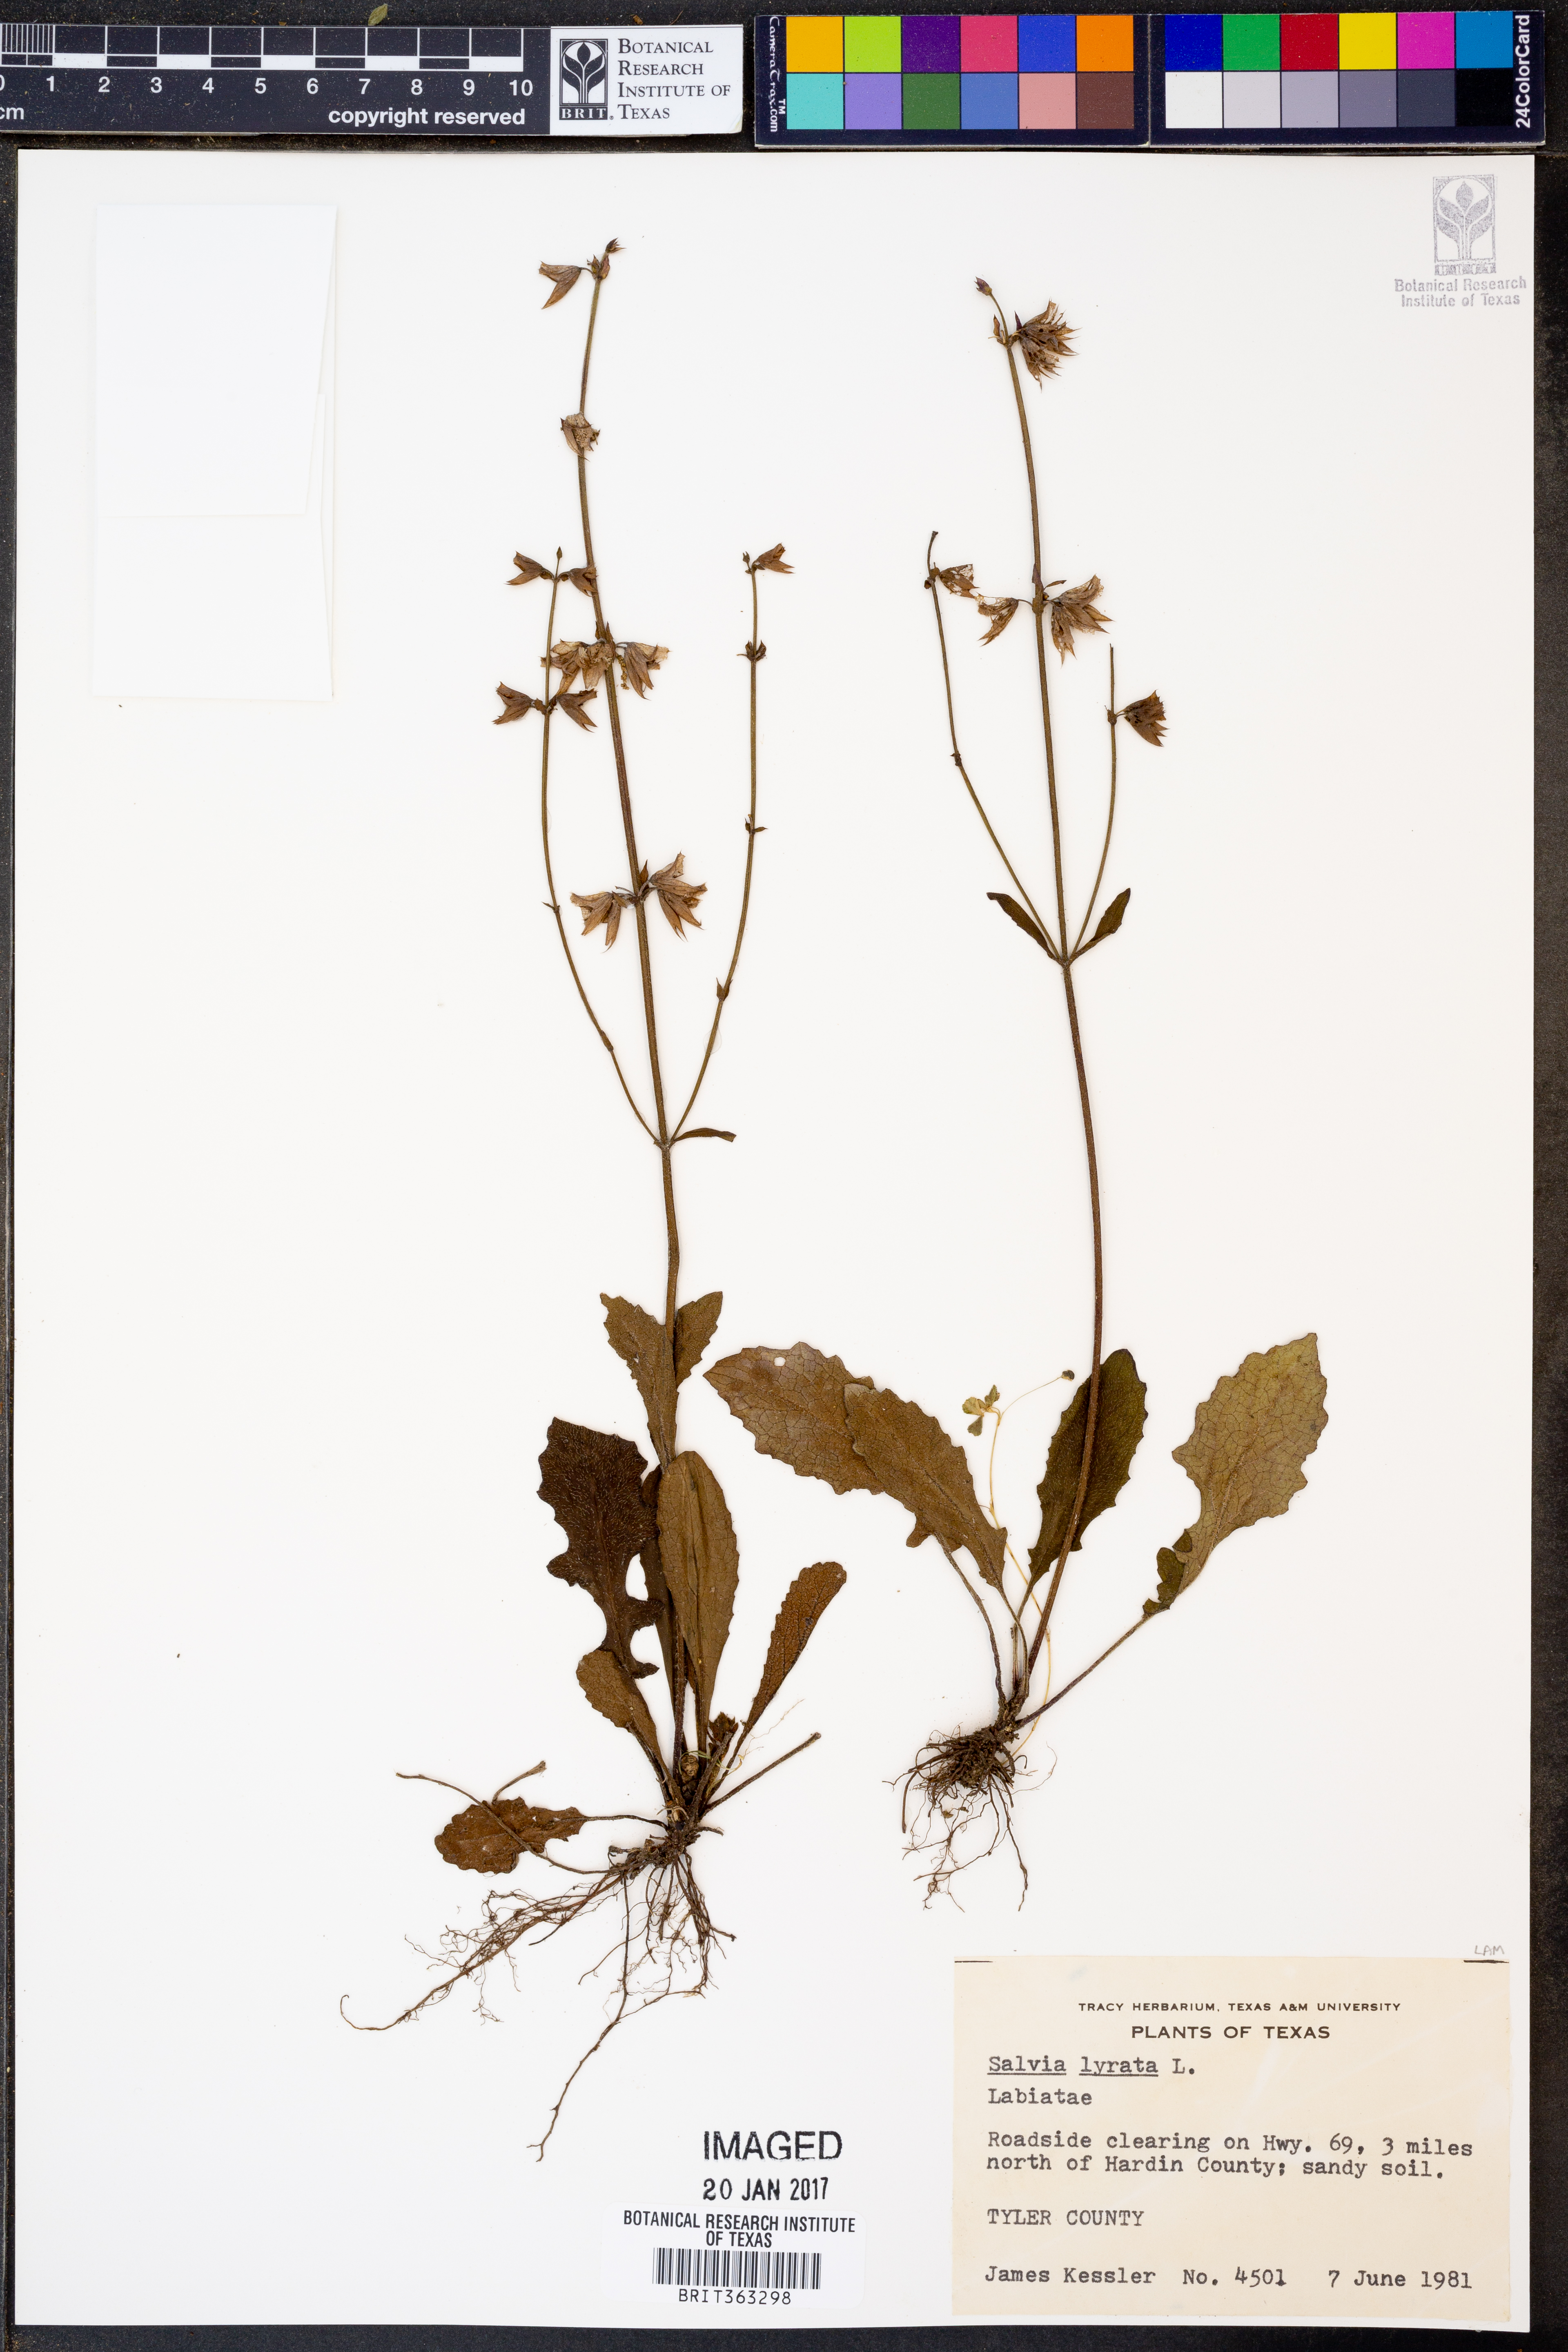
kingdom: Plantae
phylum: Tracheophyta
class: Magnoliopsida
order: Lamiales
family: Lamiaceae
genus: Salvia
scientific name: Salvia lyrata
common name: Cancerweed
